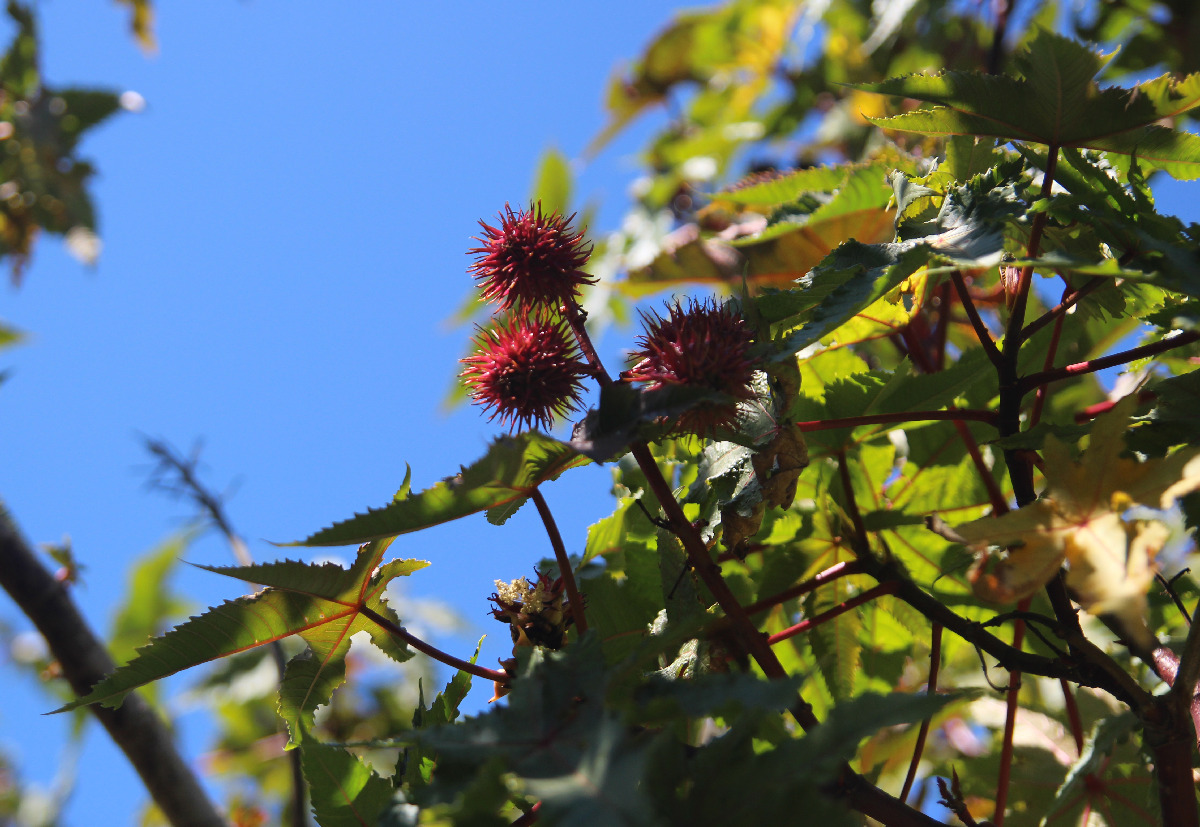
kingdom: Plantae
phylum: Tracheophyta
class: Magnoliopsida
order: Malpighiales
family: Euphorbiaceae
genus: Ricinus
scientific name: Ricinus communis
